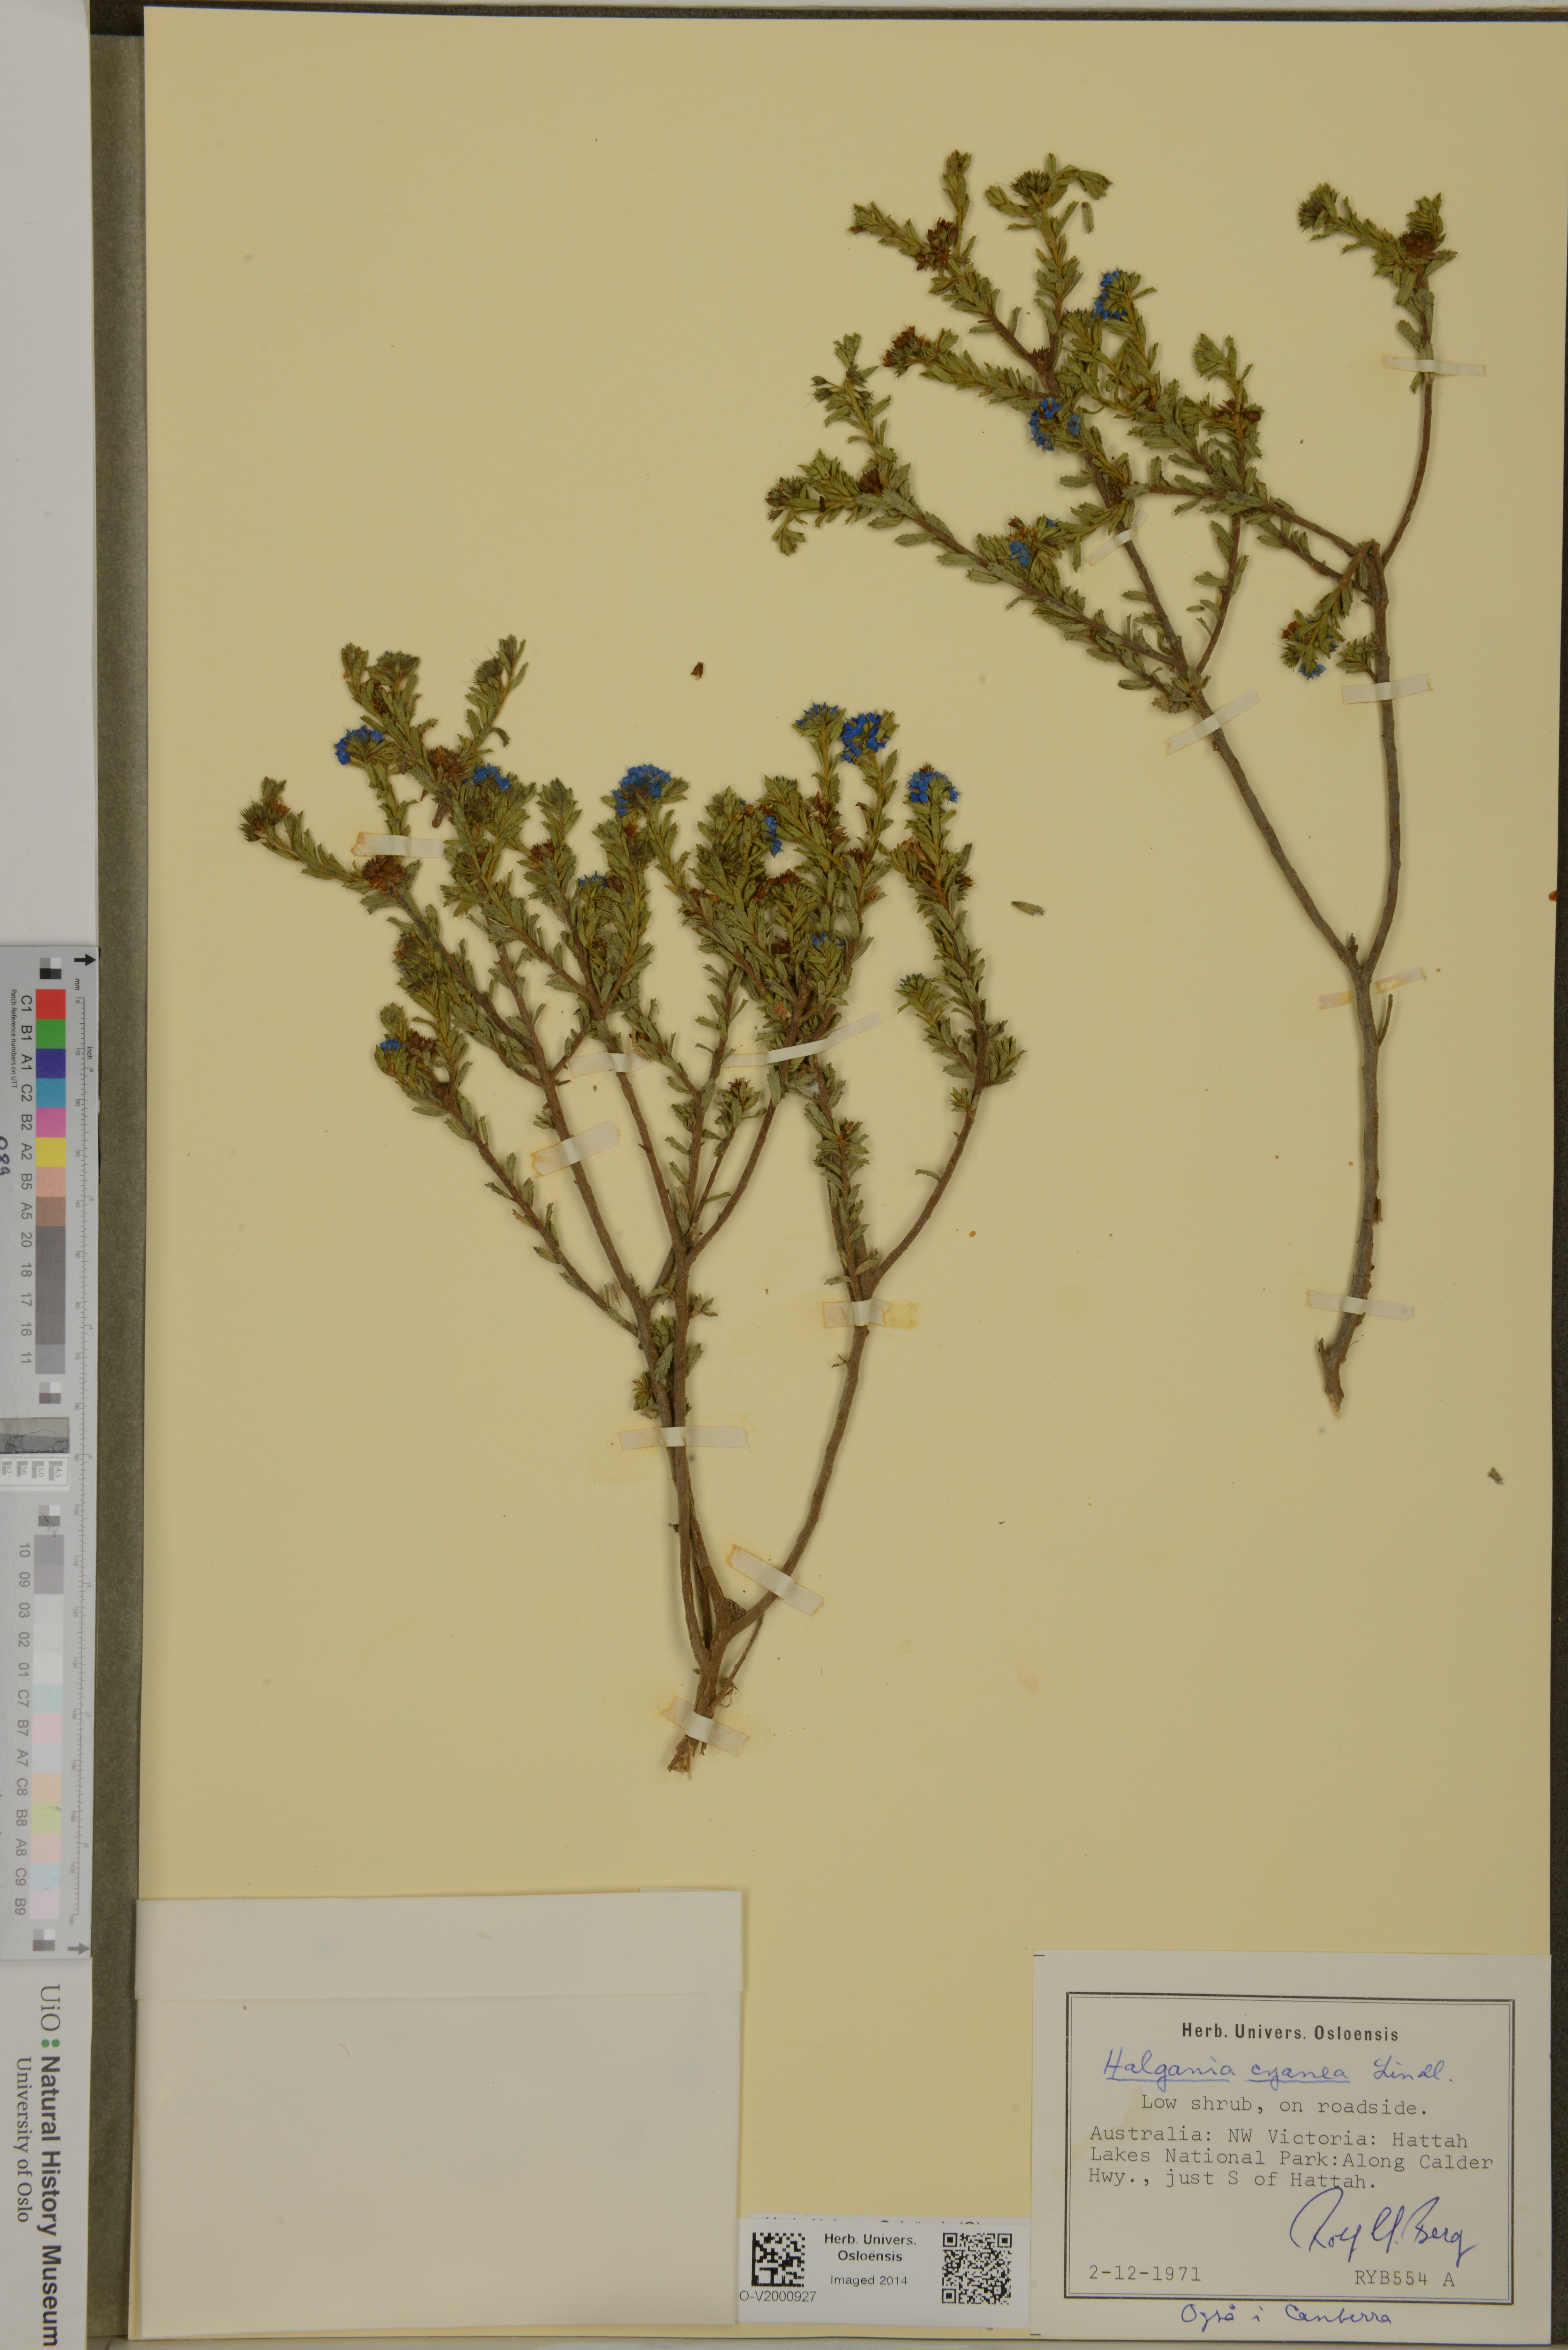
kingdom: Plantae
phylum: Tracheophyta
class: Magnoliopsida
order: Boraginales
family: Ehretiaceae
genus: Halgania
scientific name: Halgania cyanea
